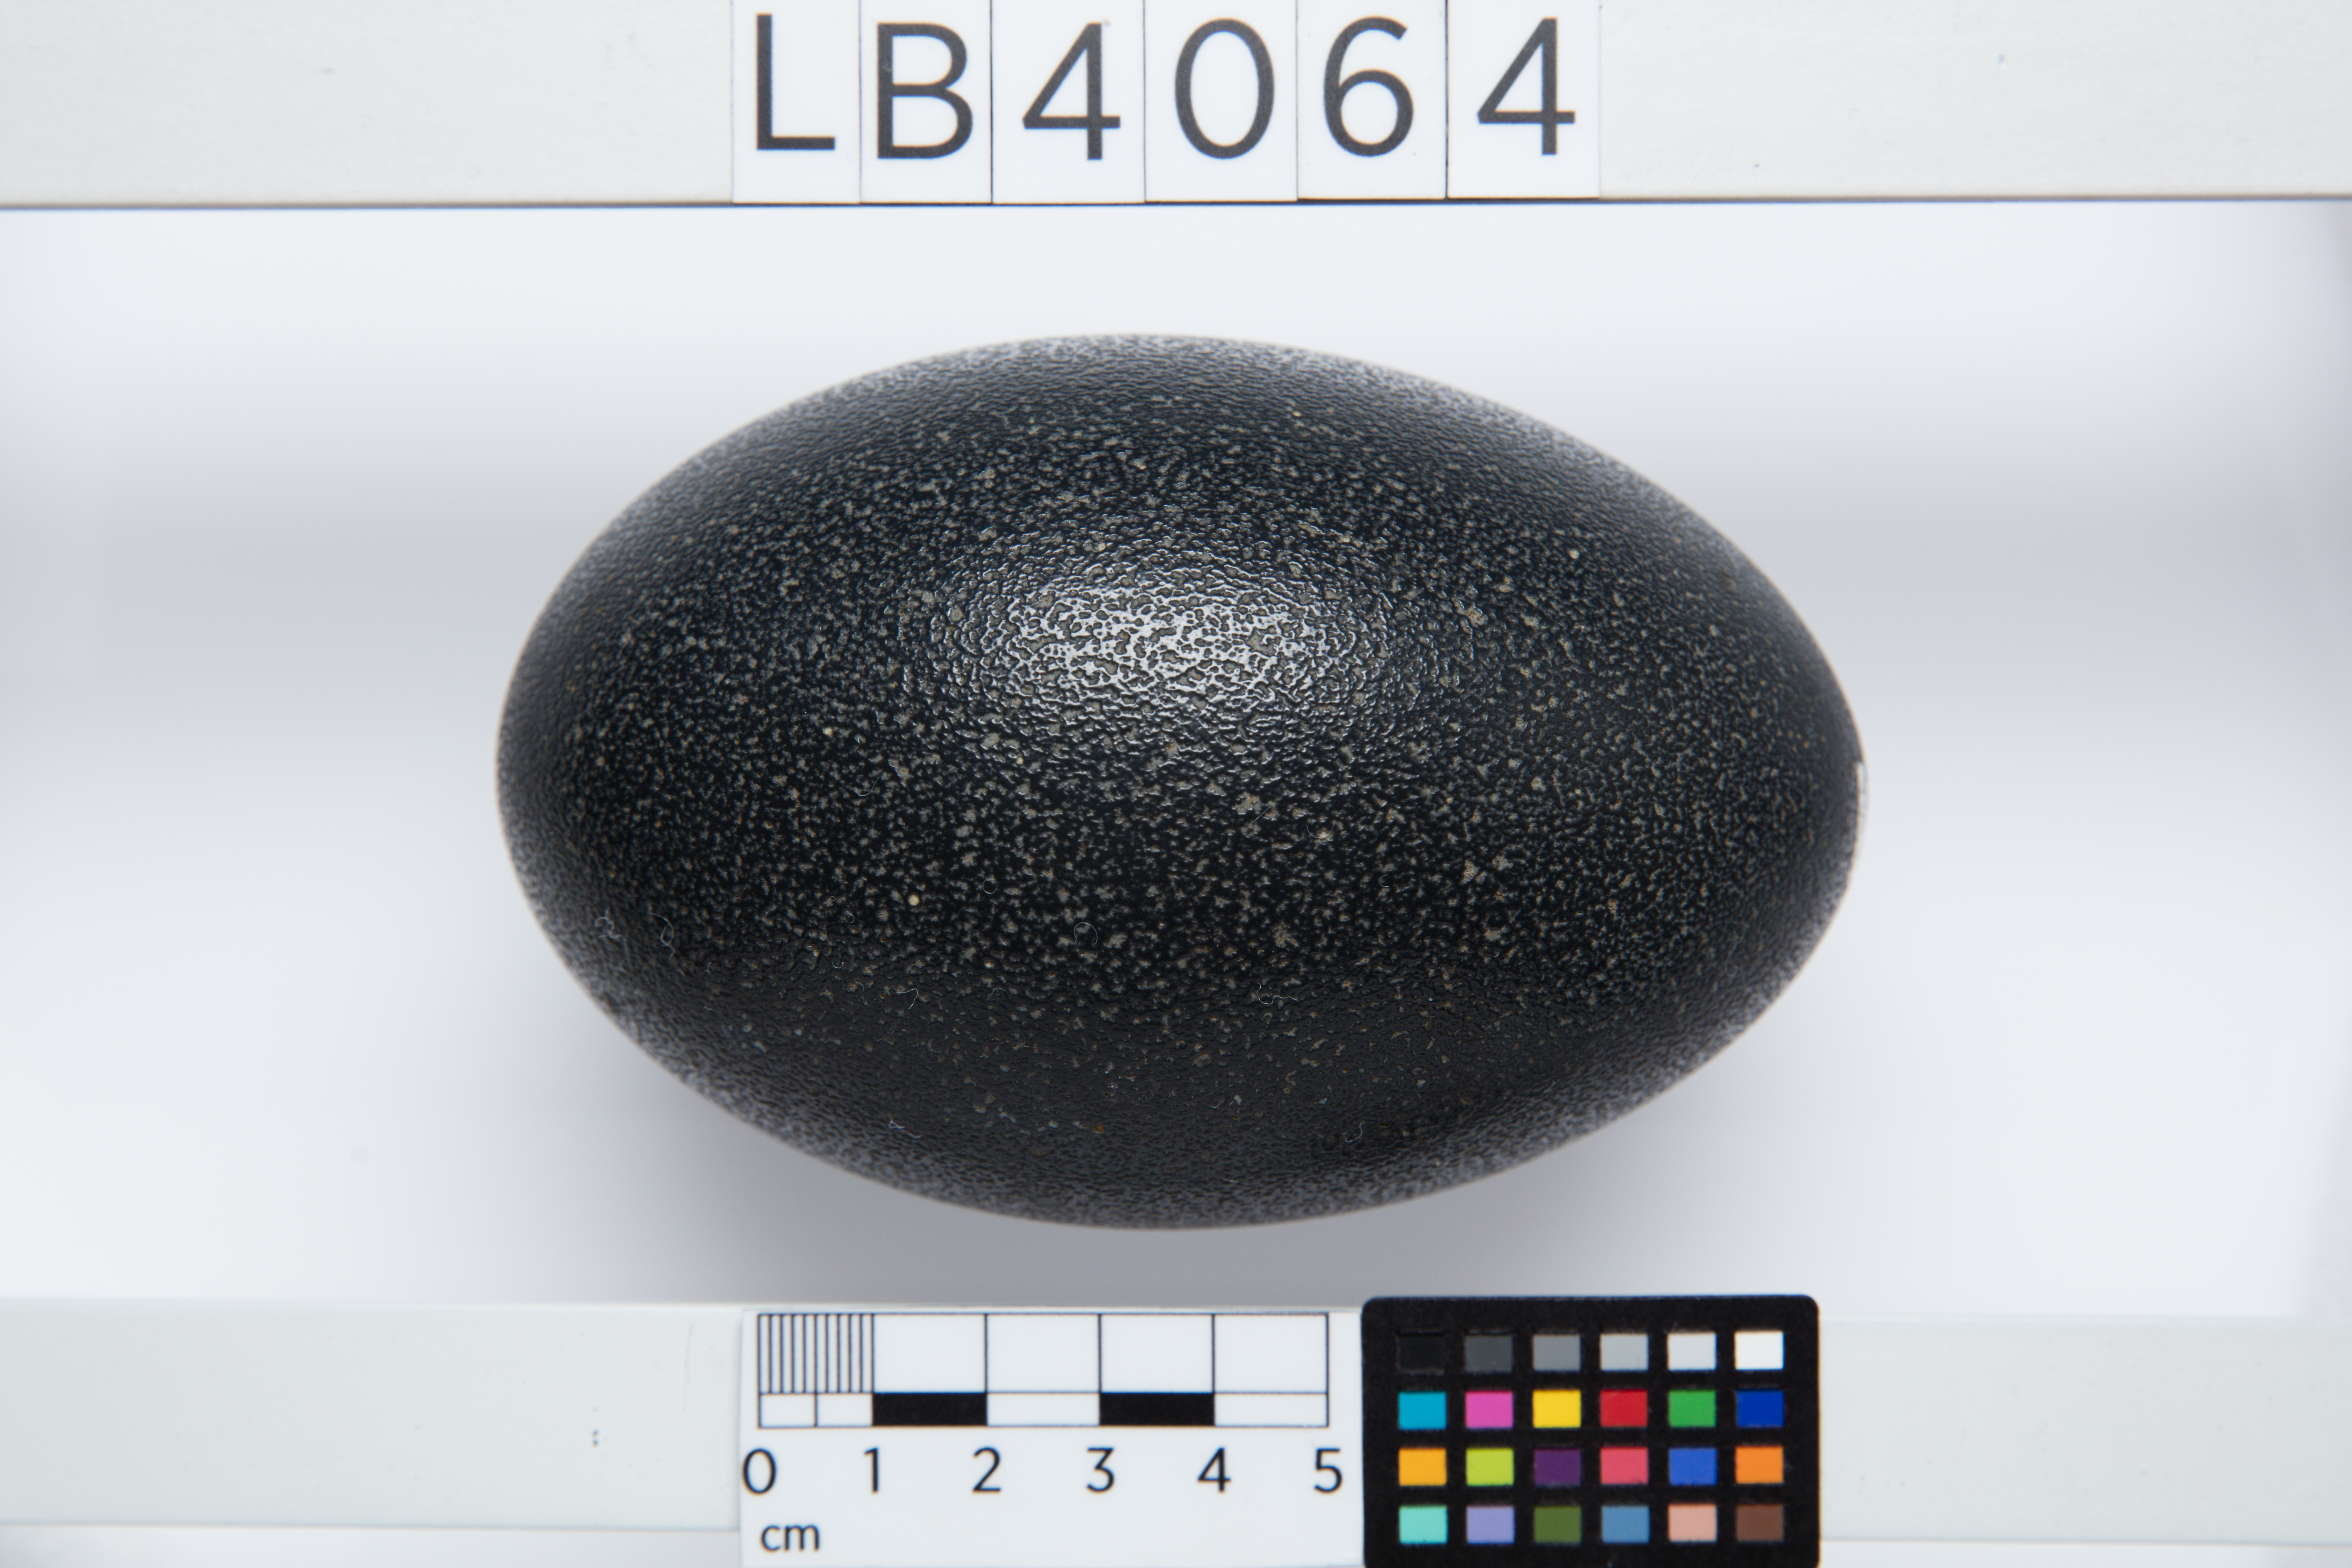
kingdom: Animalia
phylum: Chordata
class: Aves
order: Casuariiformes
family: Dromaiidae
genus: Dromaius
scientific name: Dromaius novaehollandiae
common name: Emu
